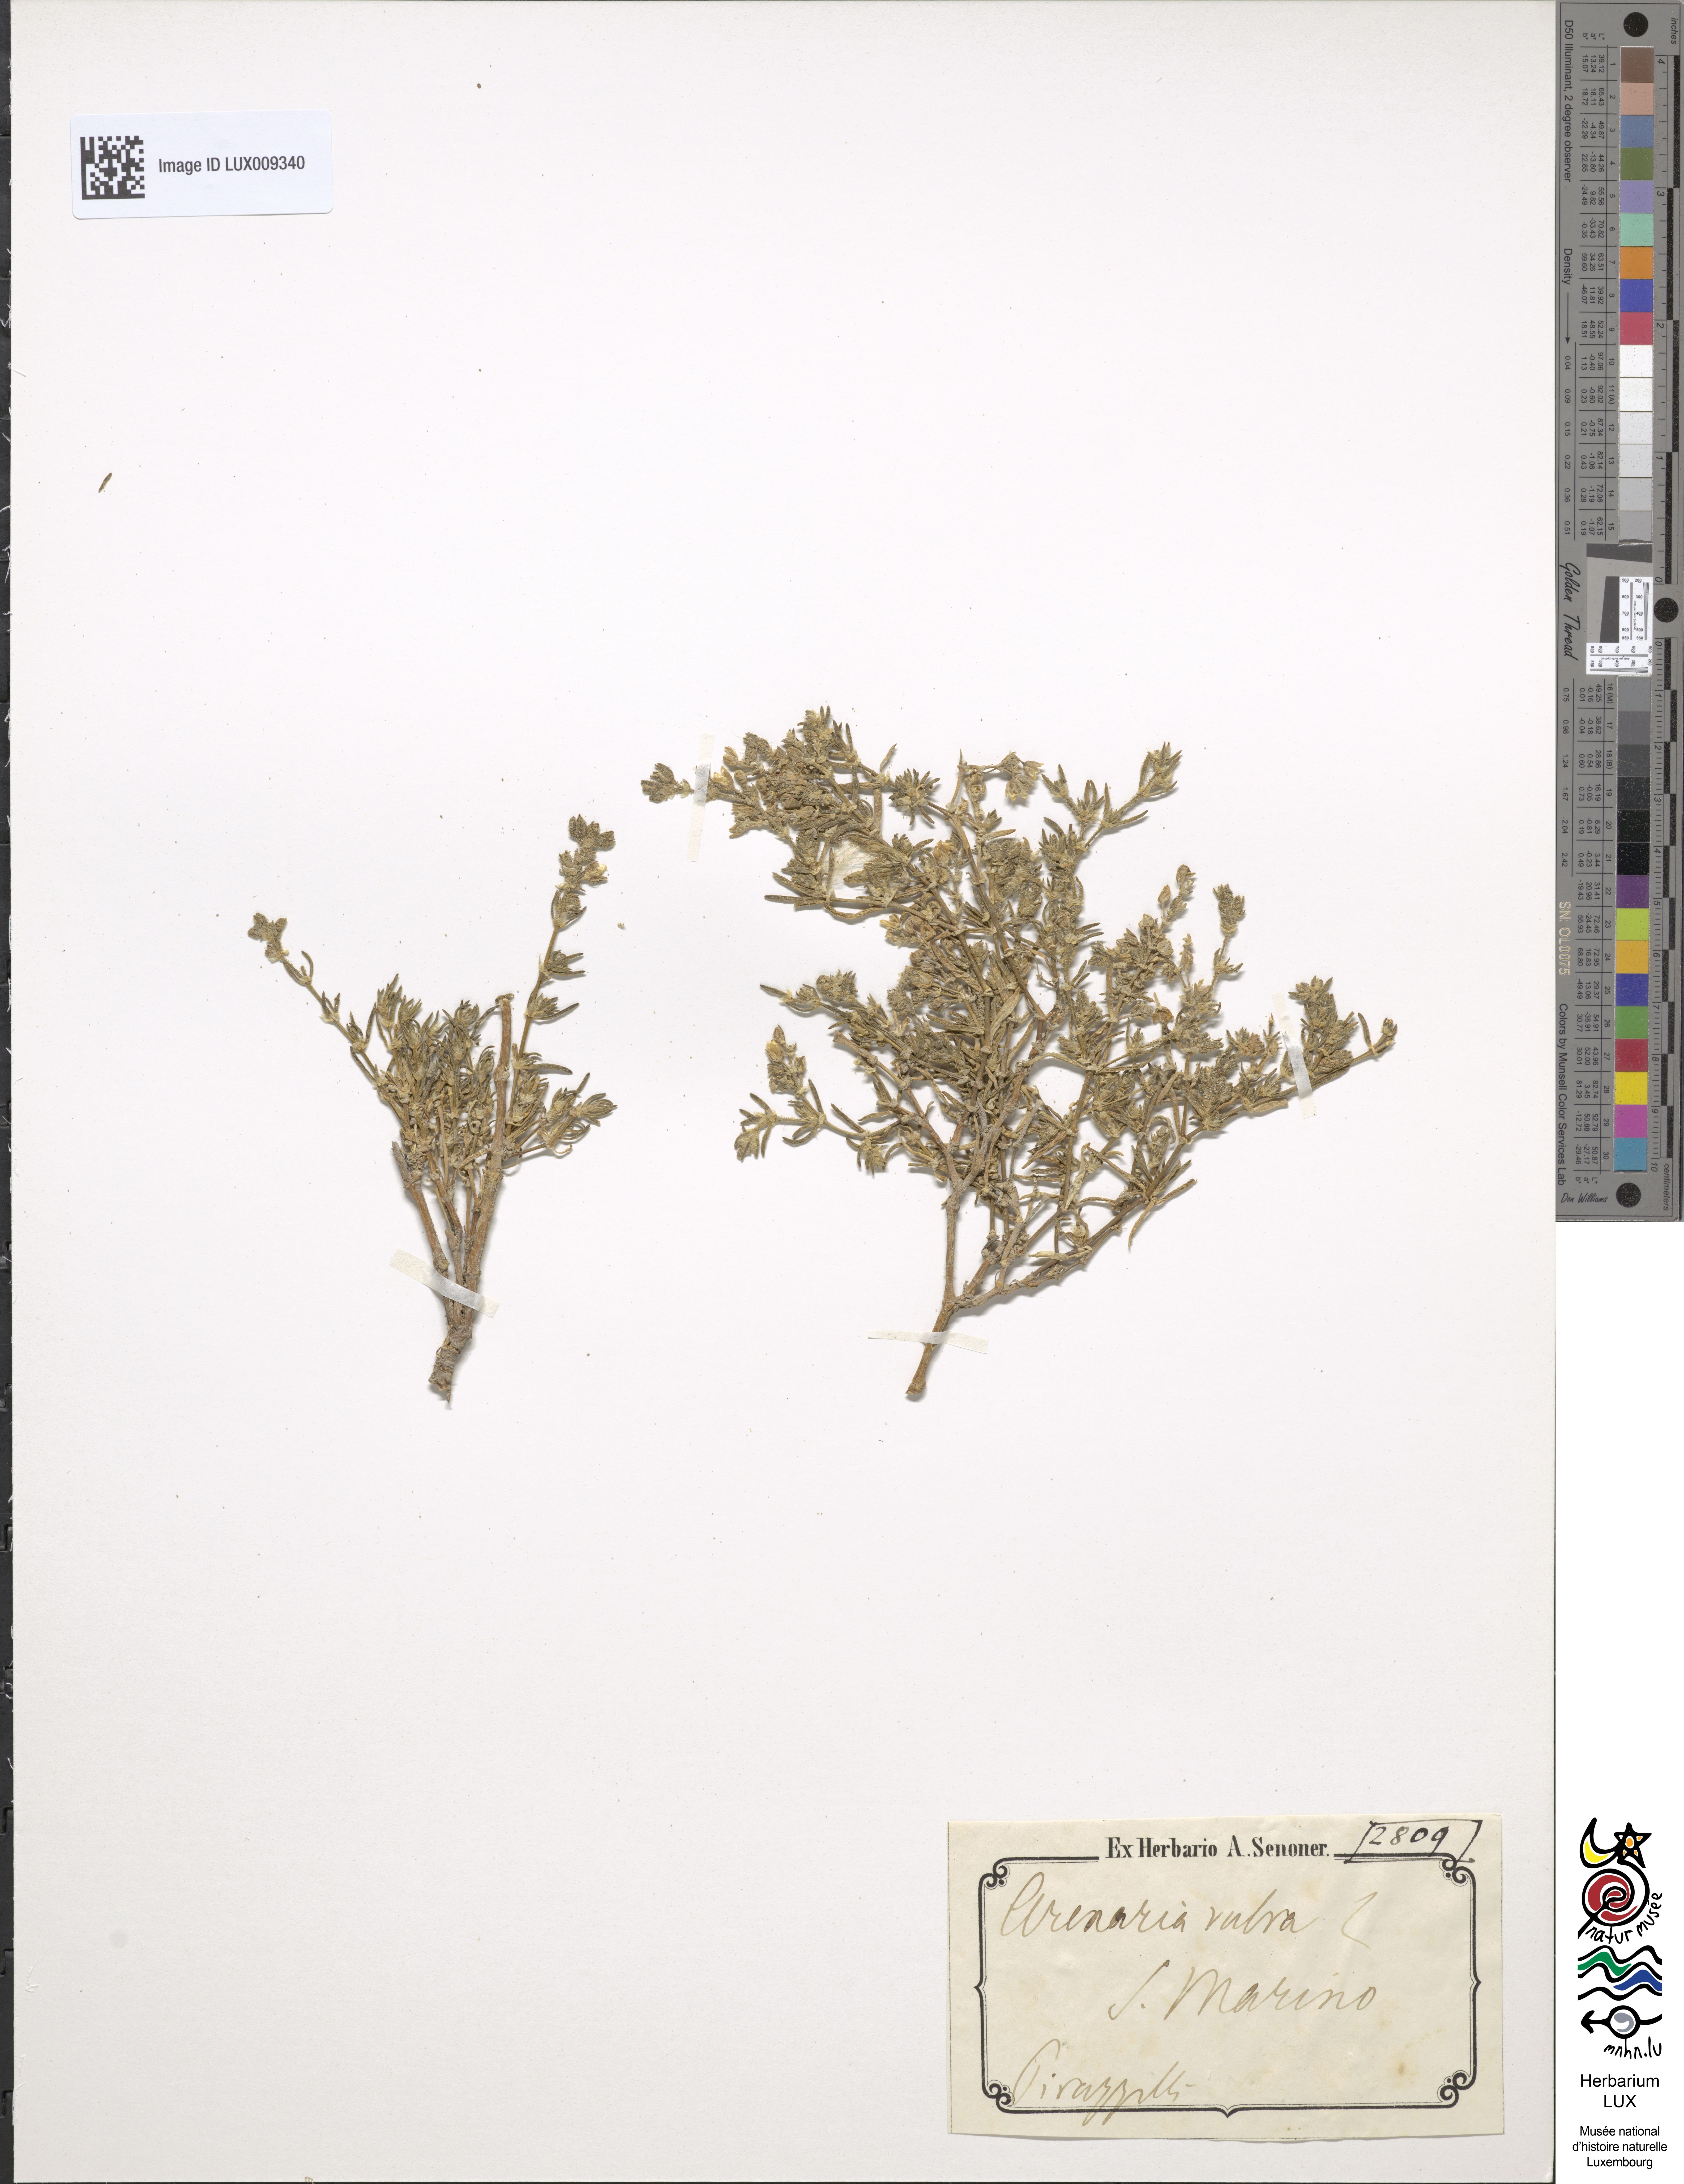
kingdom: Animalia
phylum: Chordata
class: Aves
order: Charadriiformes
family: Scolopacidae
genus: Arenaria
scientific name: Arenaria
